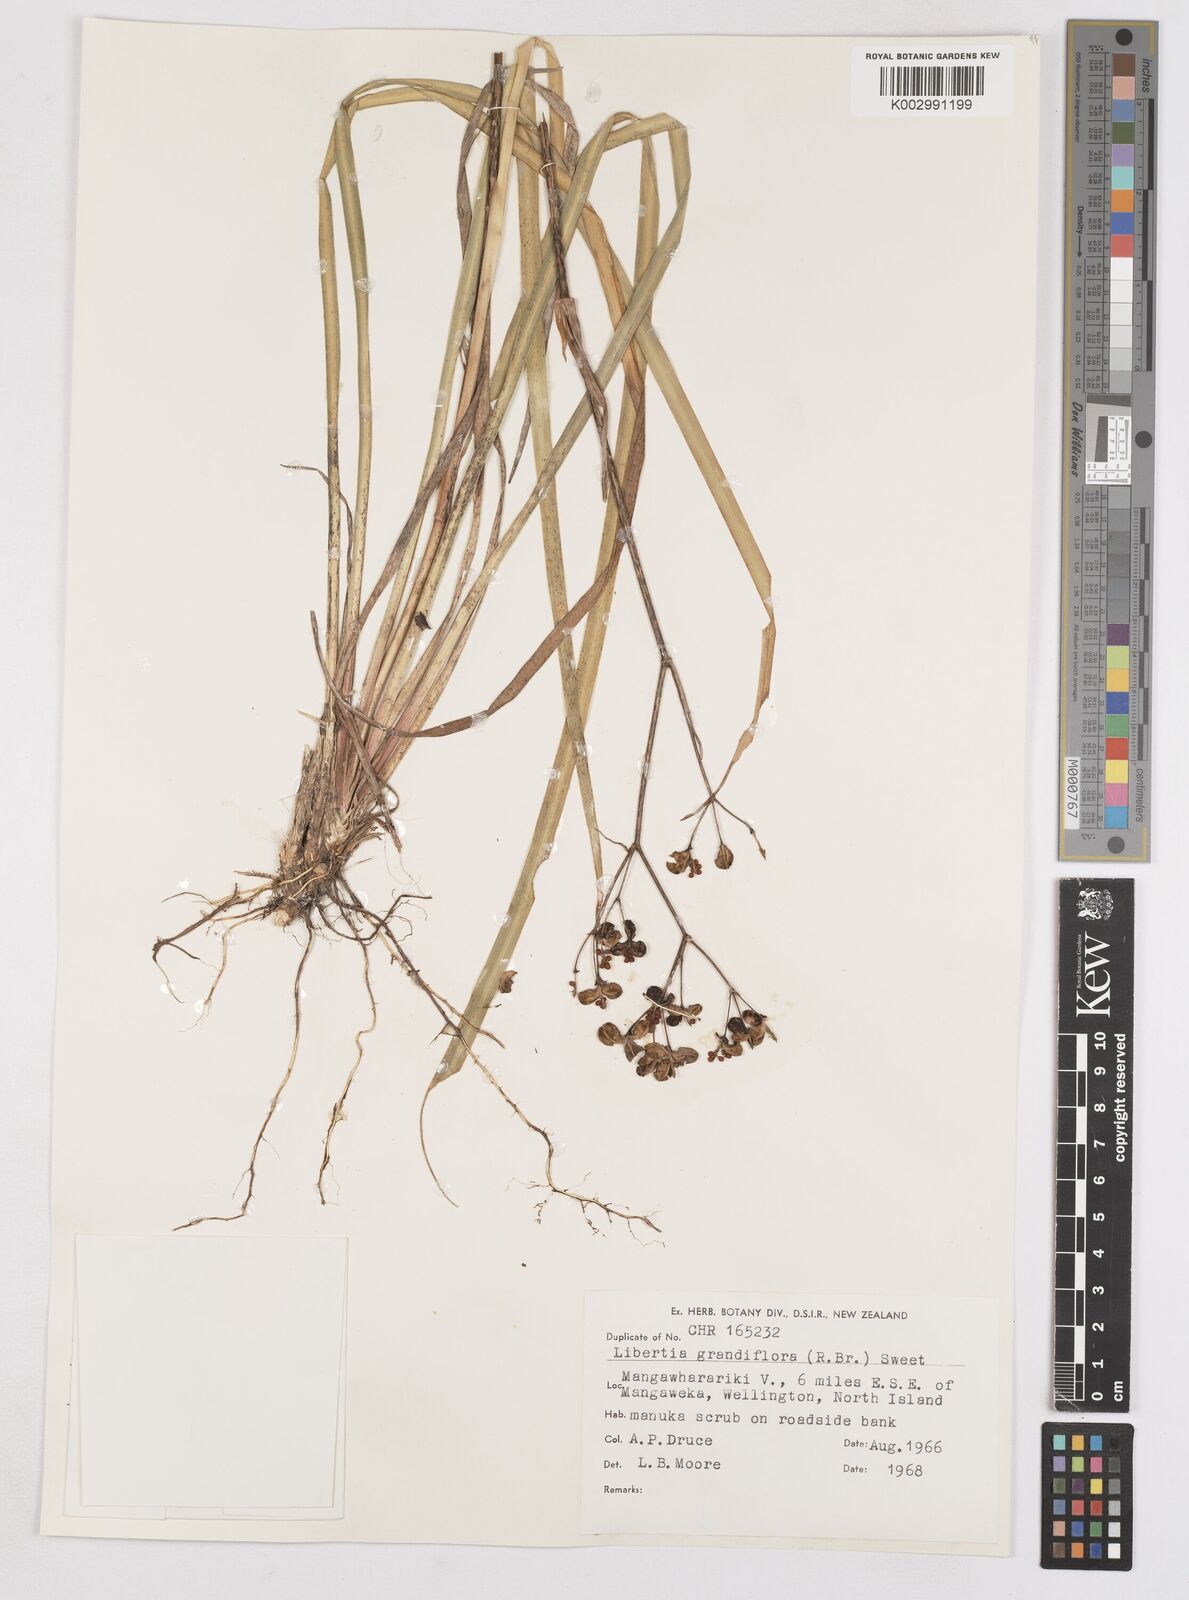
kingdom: Plantae
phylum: Tracheophyta
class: Liliopsida
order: Asparagales
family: Iridaceae
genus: Libertia
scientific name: Libertia grandiflora
